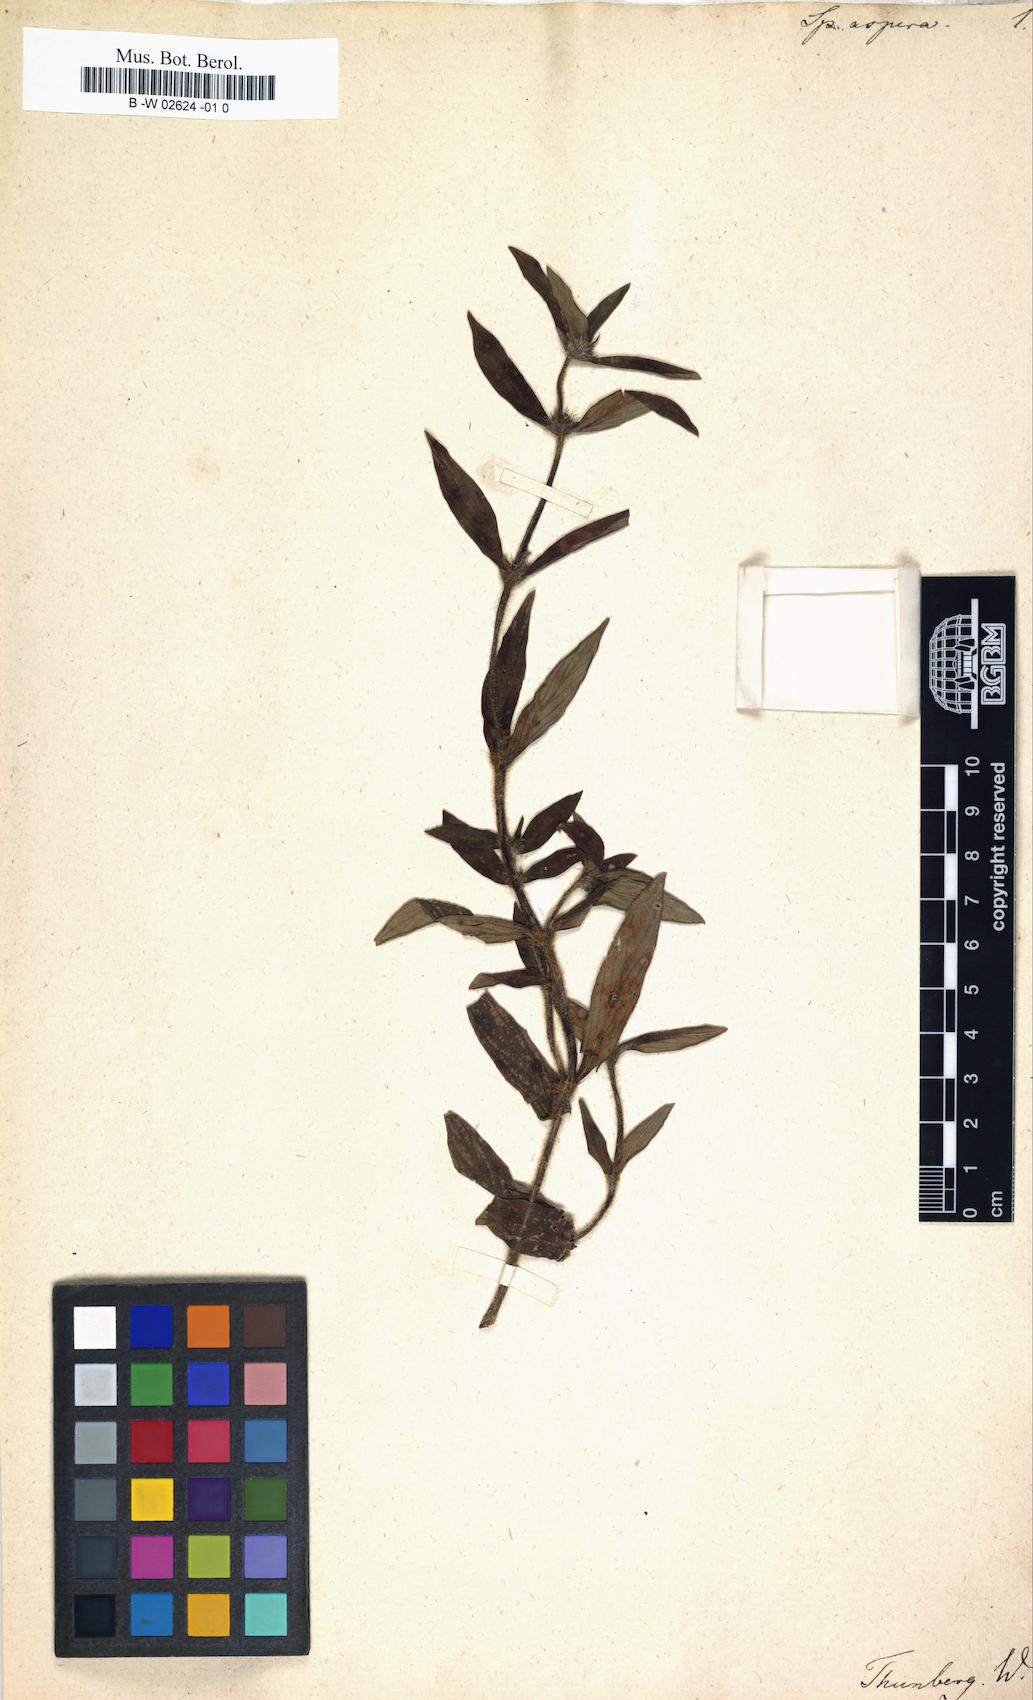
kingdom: Plantae
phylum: Tracheophyta
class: Magnoliopsida
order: Gentianales
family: Rubiaceae
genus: Spermacoce
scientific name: Spermacoce latifolia
